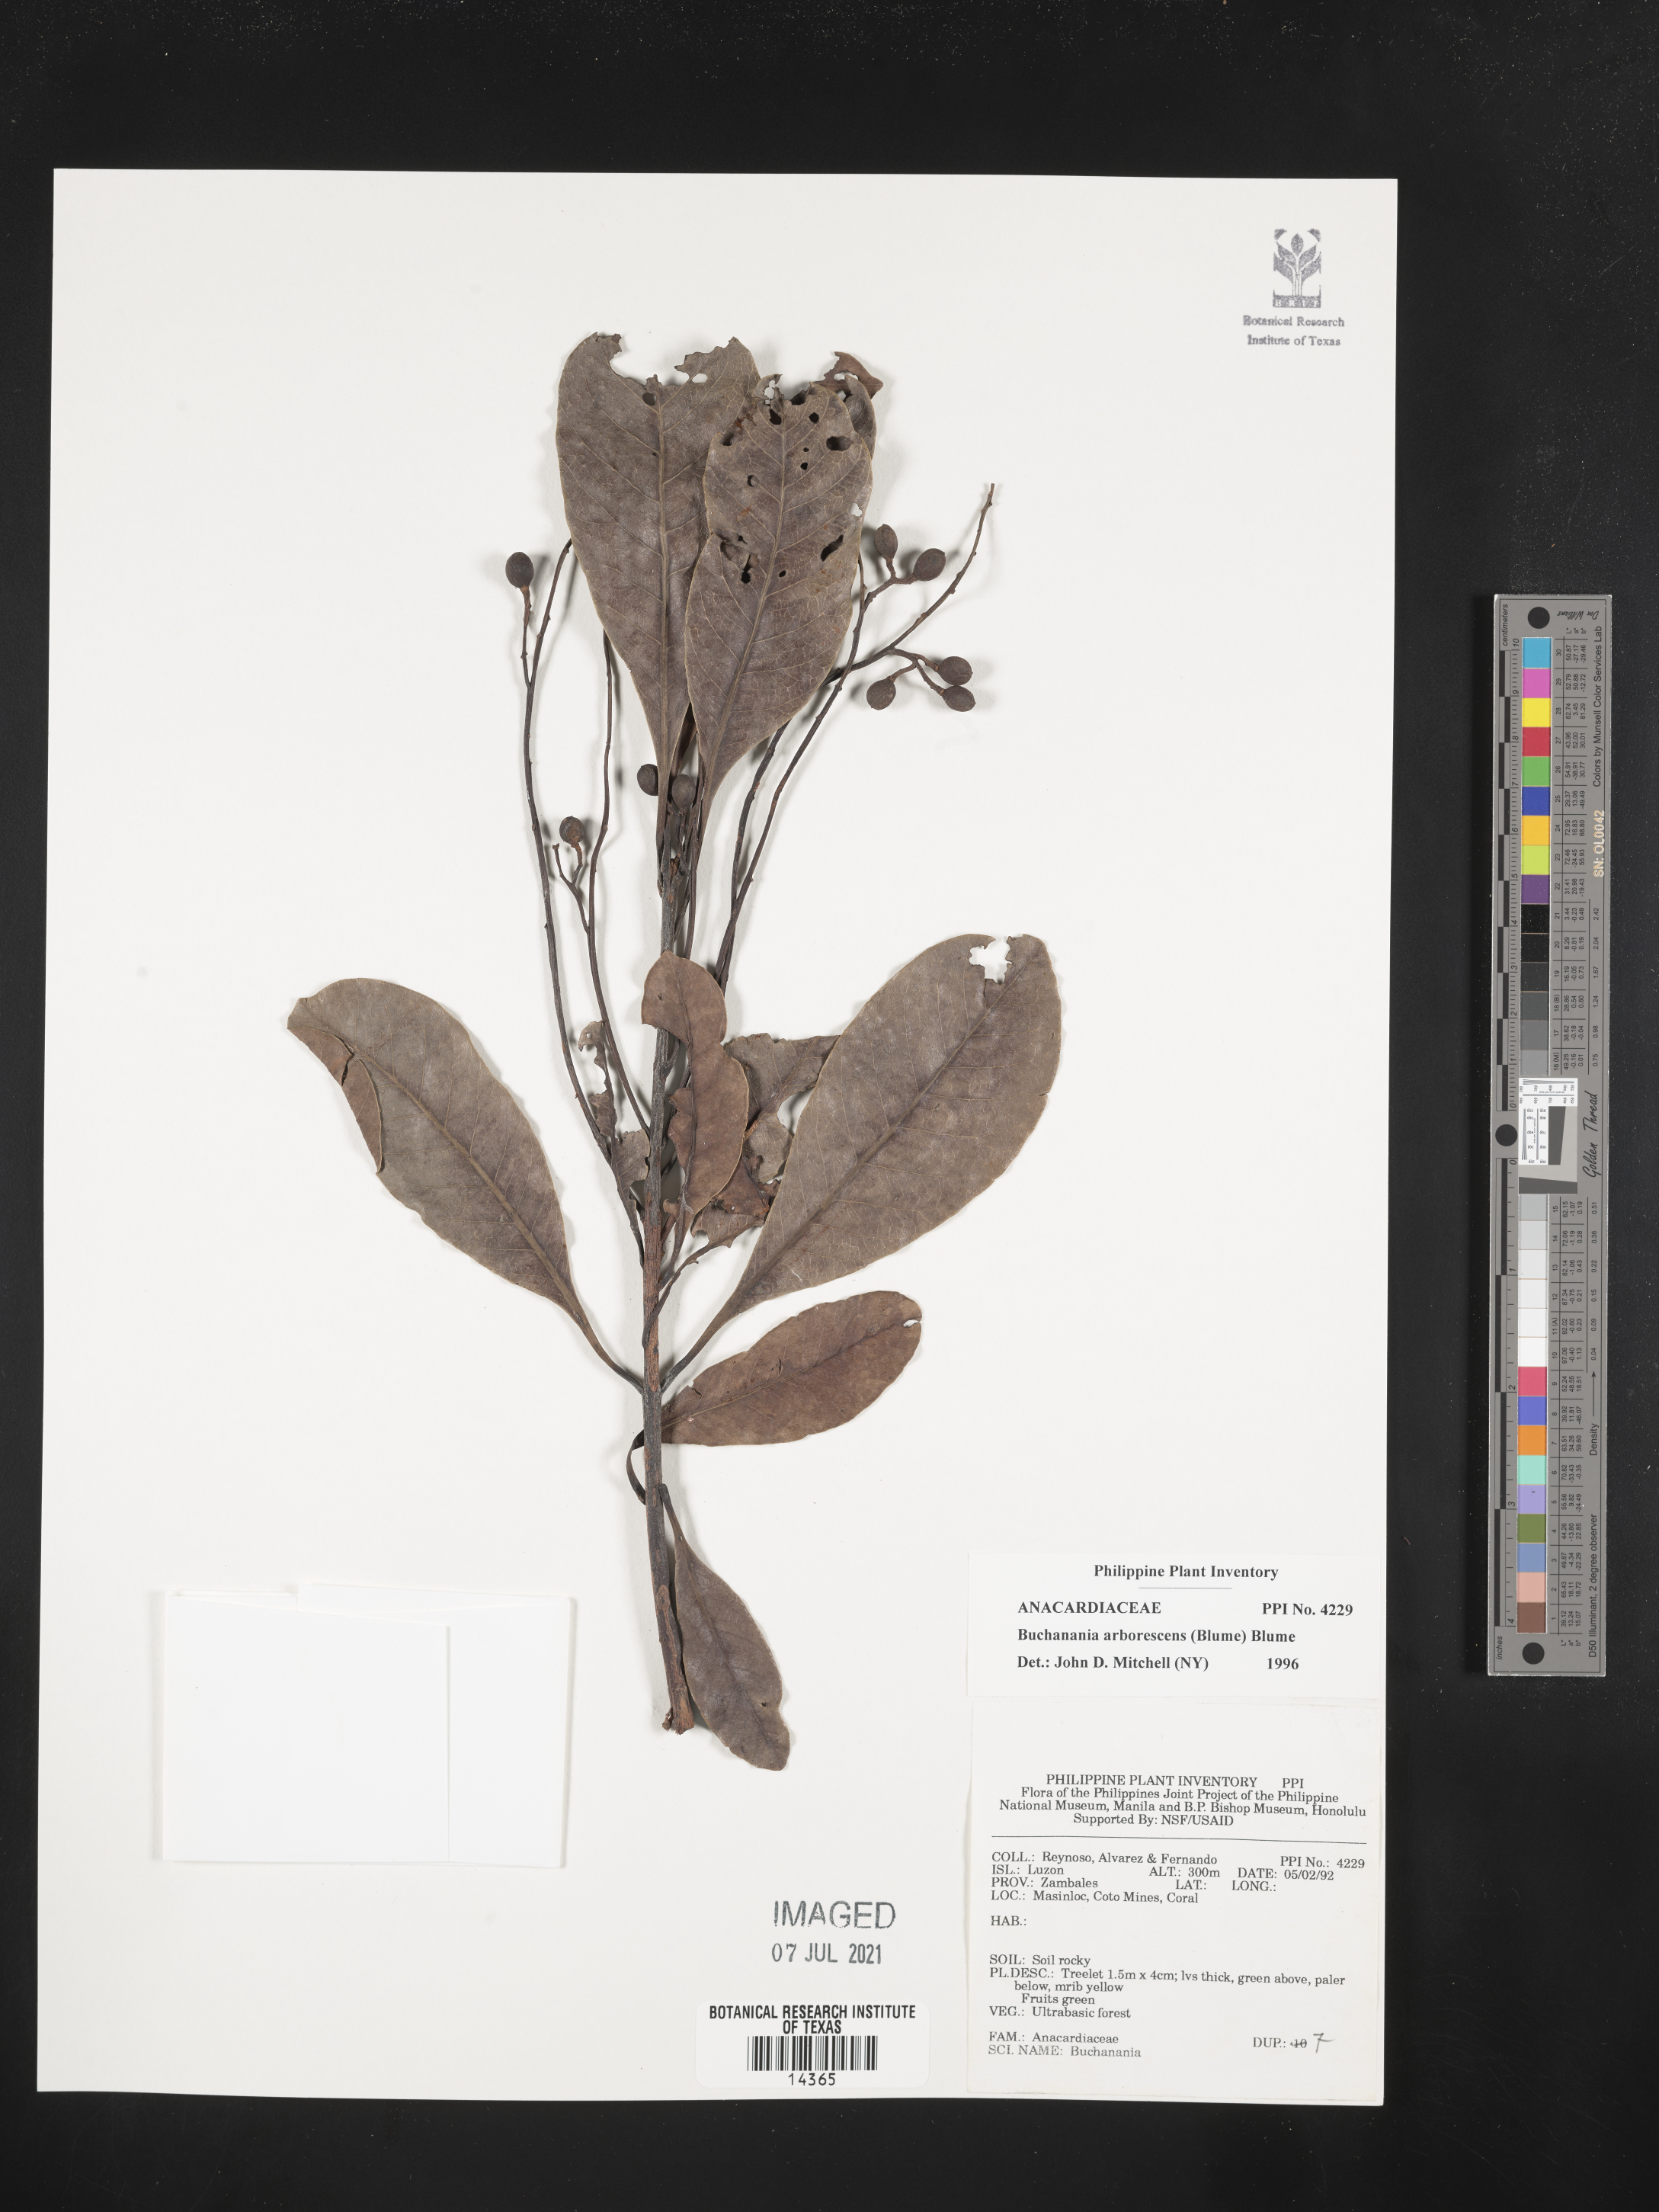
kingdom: Plantae
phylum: Tracheophyta
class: Magnoliopsida
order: Sapindales
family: Anacardiaceae
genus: Buchanania
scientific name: Buchanania arborescens
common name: Sparrow’s mango
